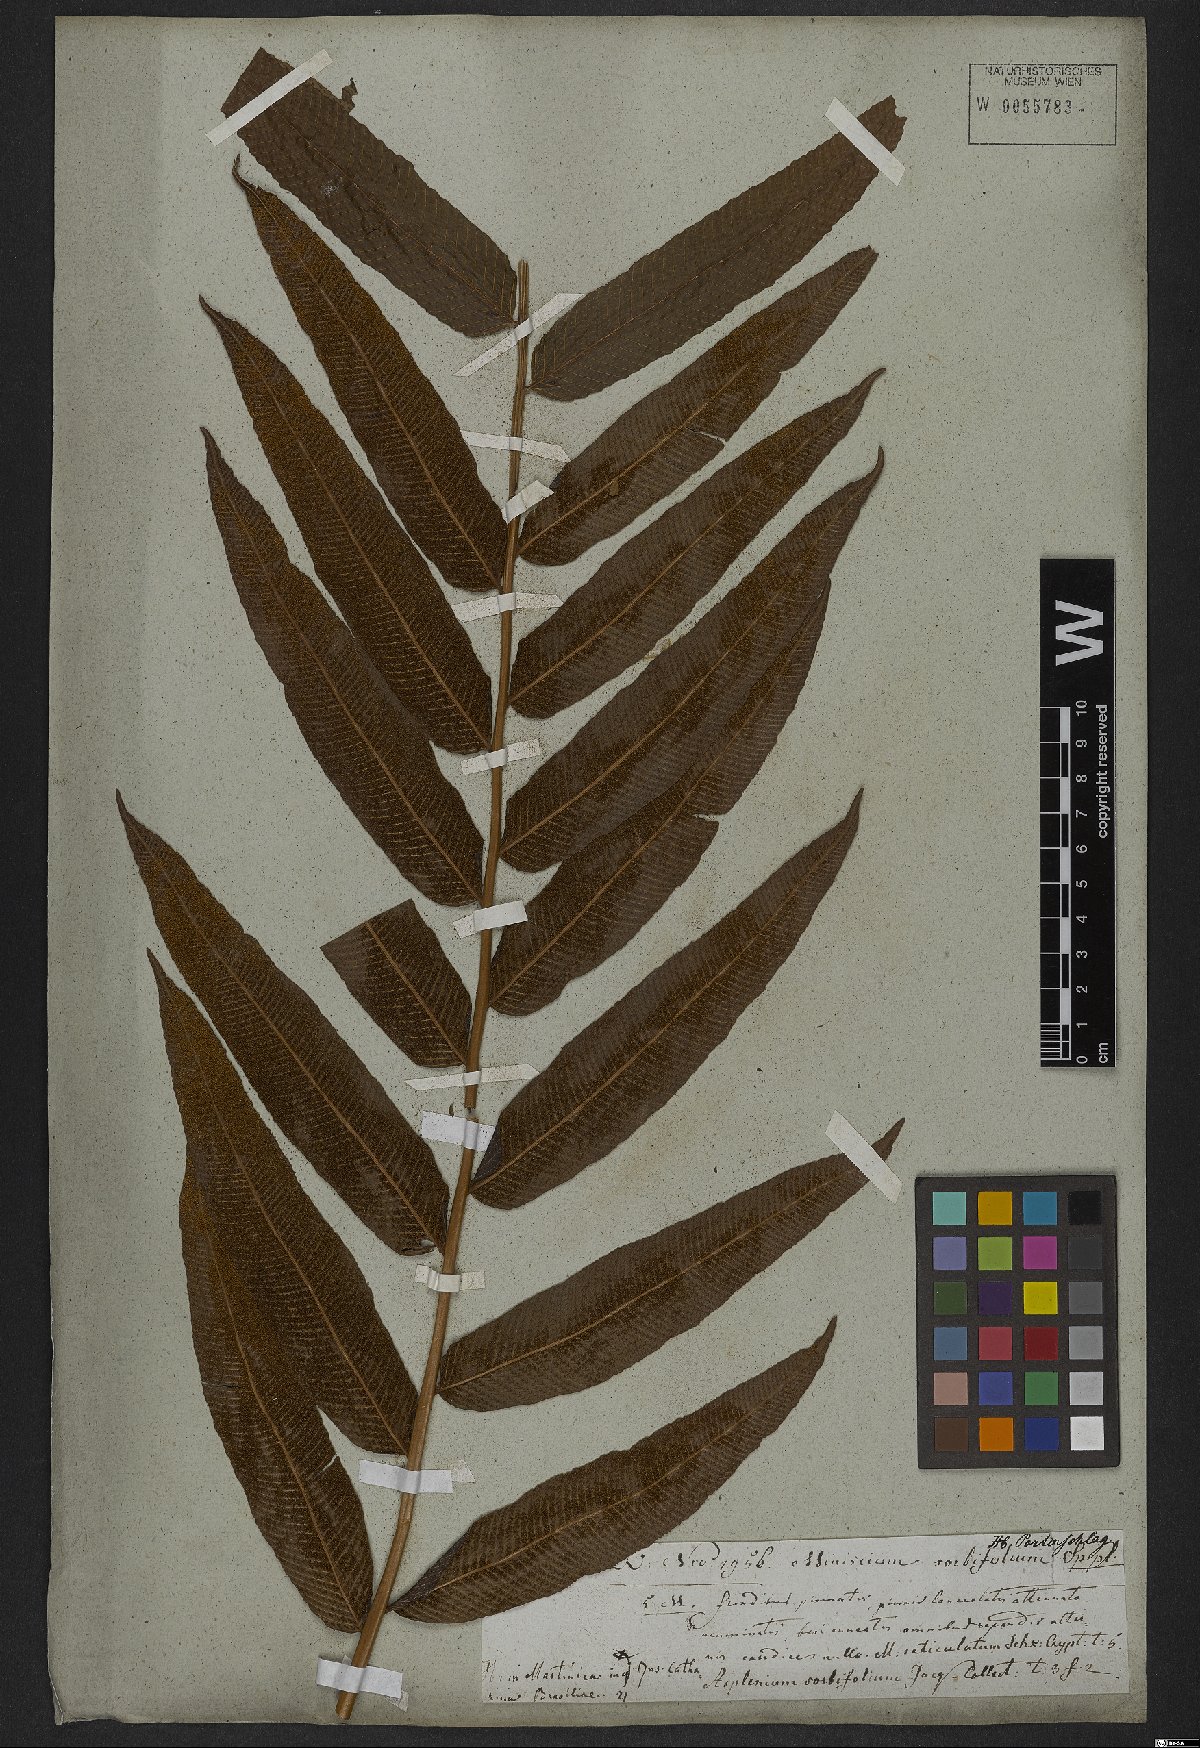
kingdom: Plantae
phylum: Tracheophyta
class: Polypodiopsida
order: Polypodiales
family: Thelypteridaceae
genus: Meniscium
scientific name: Meniscium reticulatum
